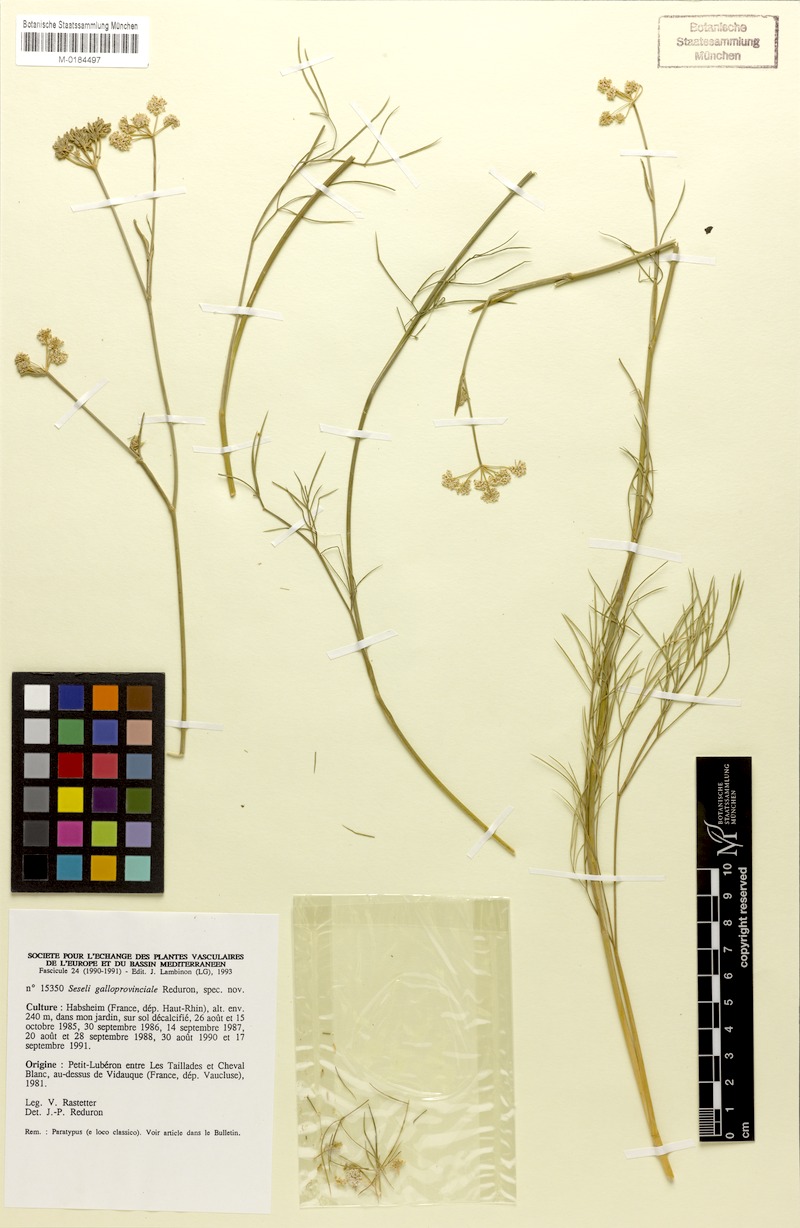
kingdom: Plantae
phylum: Tracheophyta
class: Magnoliopsida
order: Apiales
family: Apiaceae
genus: Seseli
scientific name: Seseli galloprovinciale
